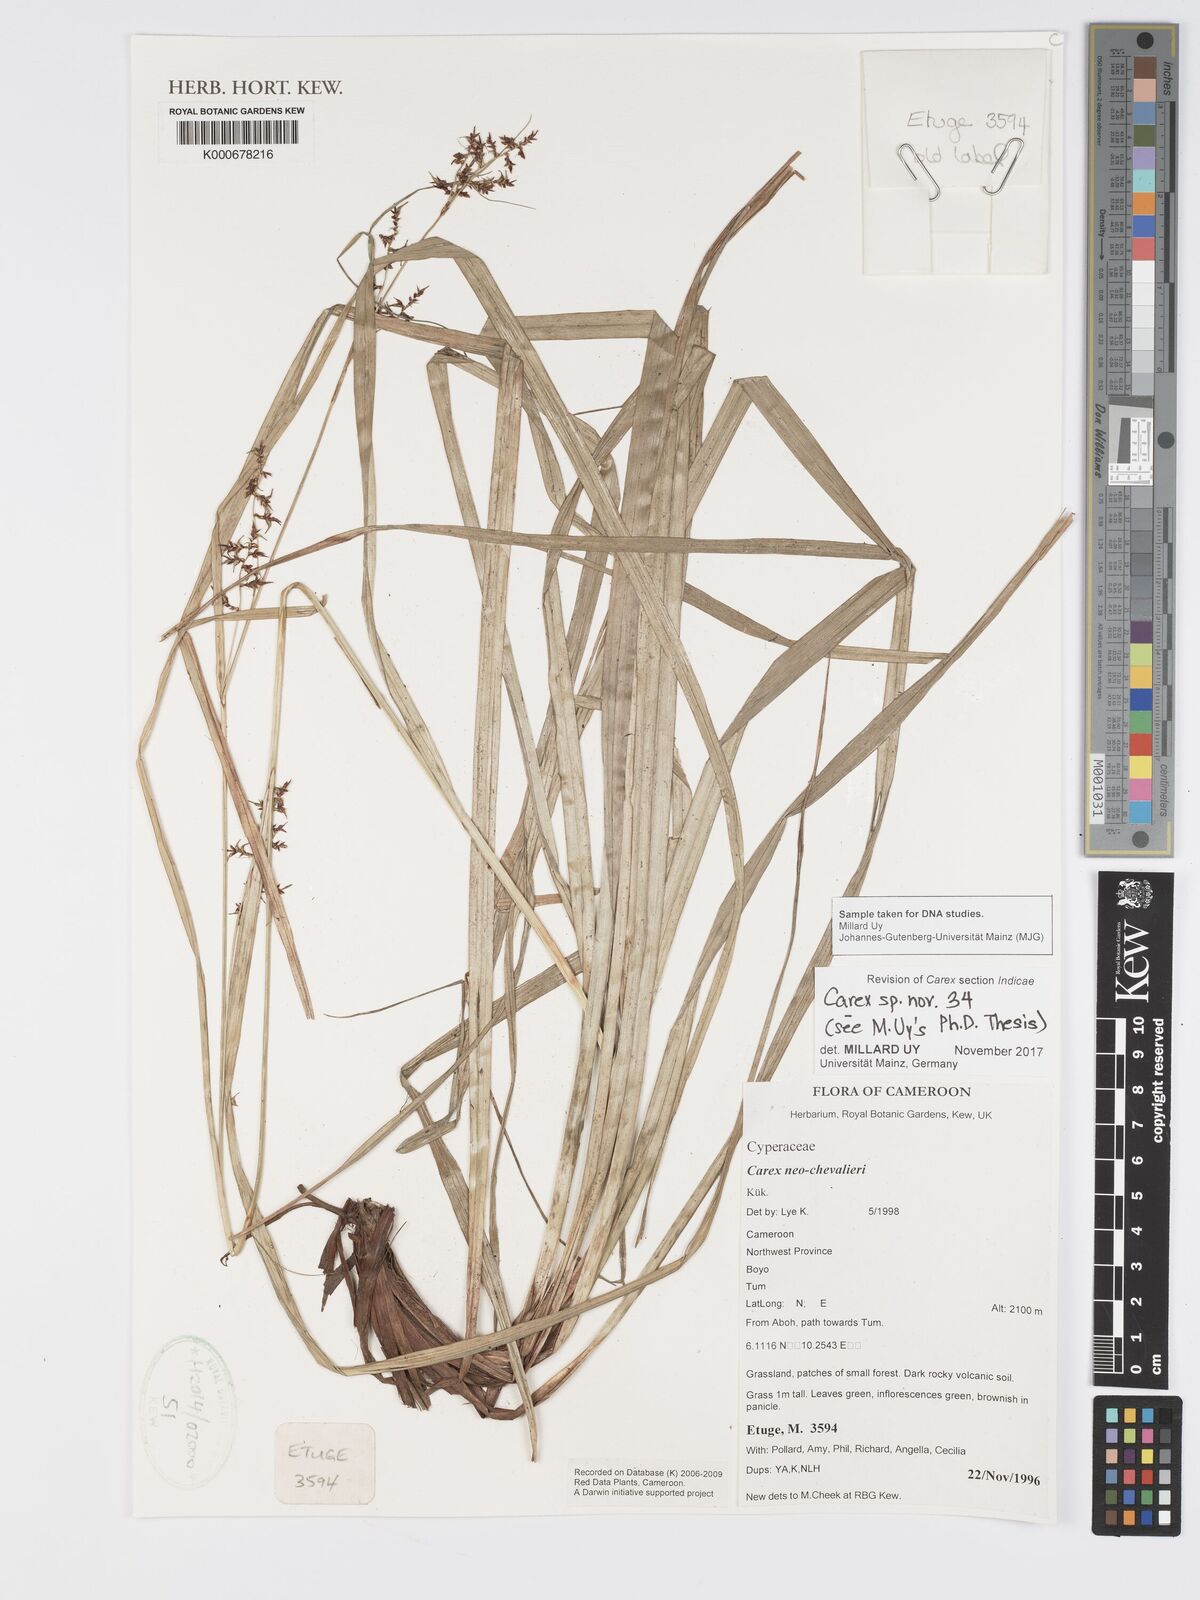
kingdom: Plantae
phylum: Tracheophyta
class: Liliopsida
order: Poales
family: Cyperaceae
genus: Carex
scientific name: Carex
